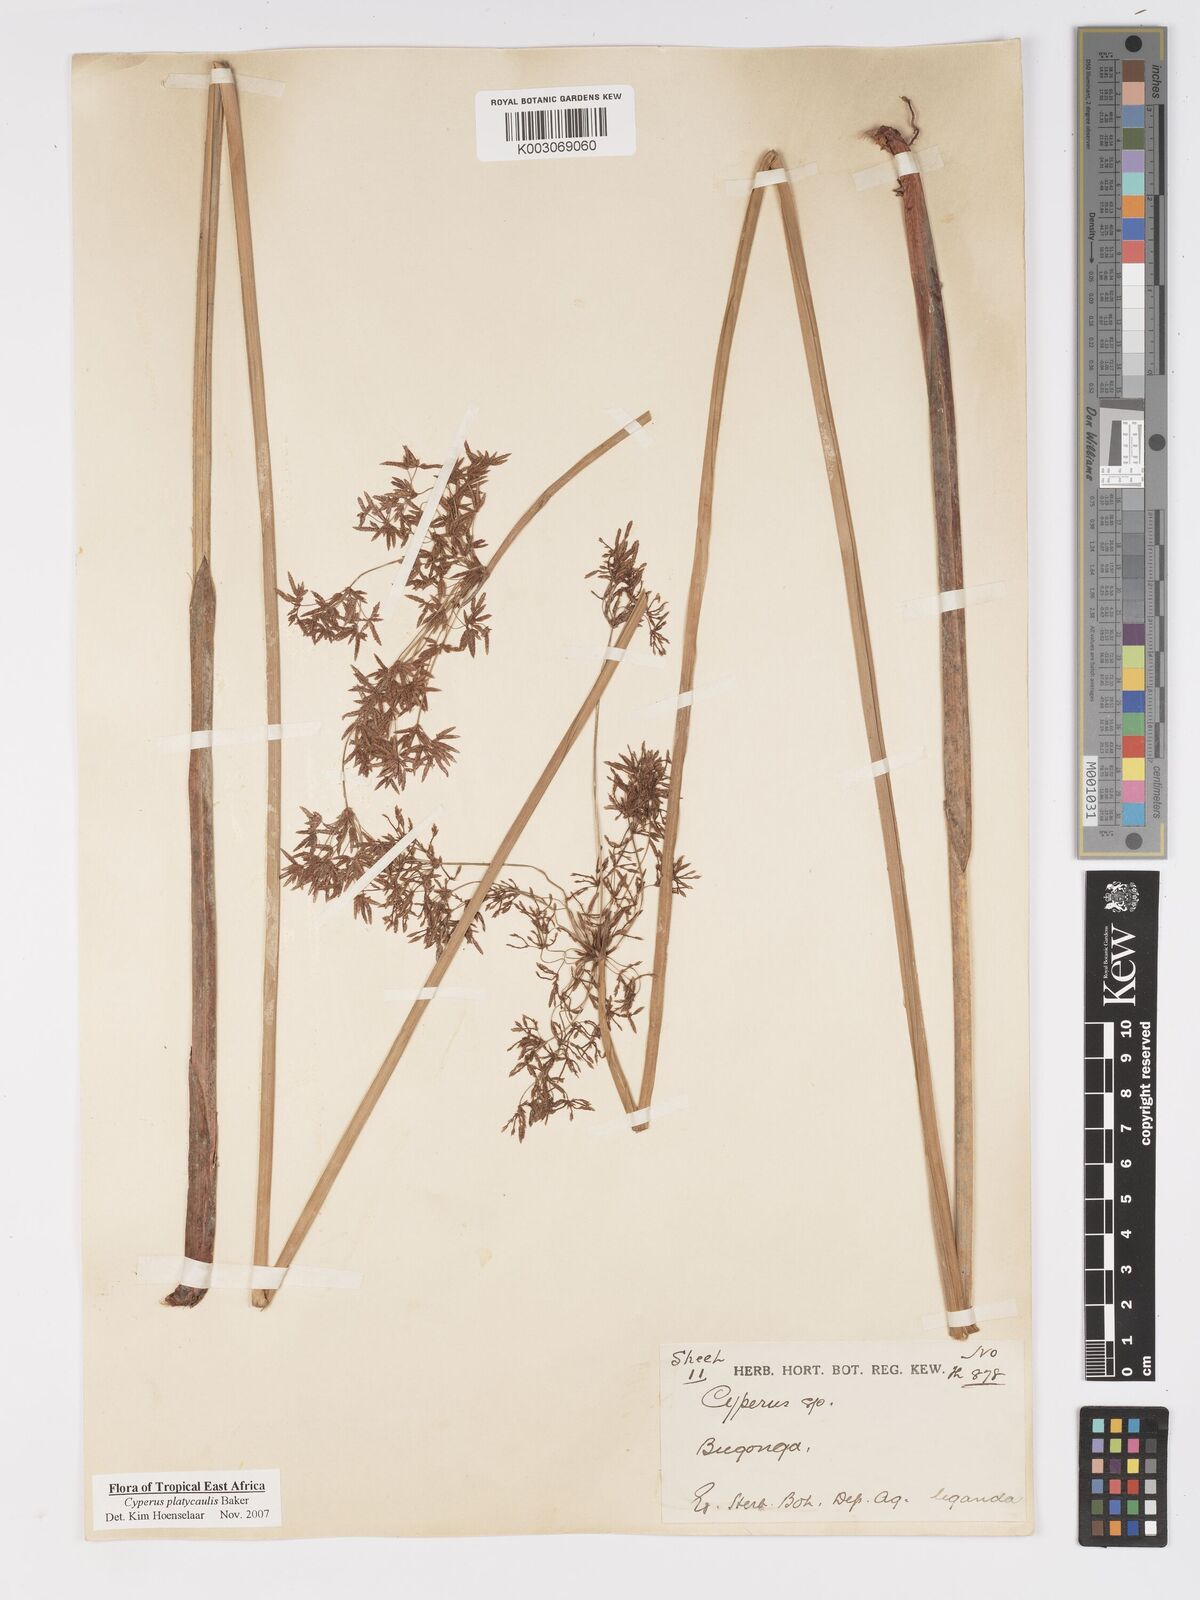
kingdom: Plantae
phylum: Tracheophyta
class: Liliopsida
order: Poales
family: Cyperaceae
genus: Cyperus
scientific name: Cyperus platycaulis
